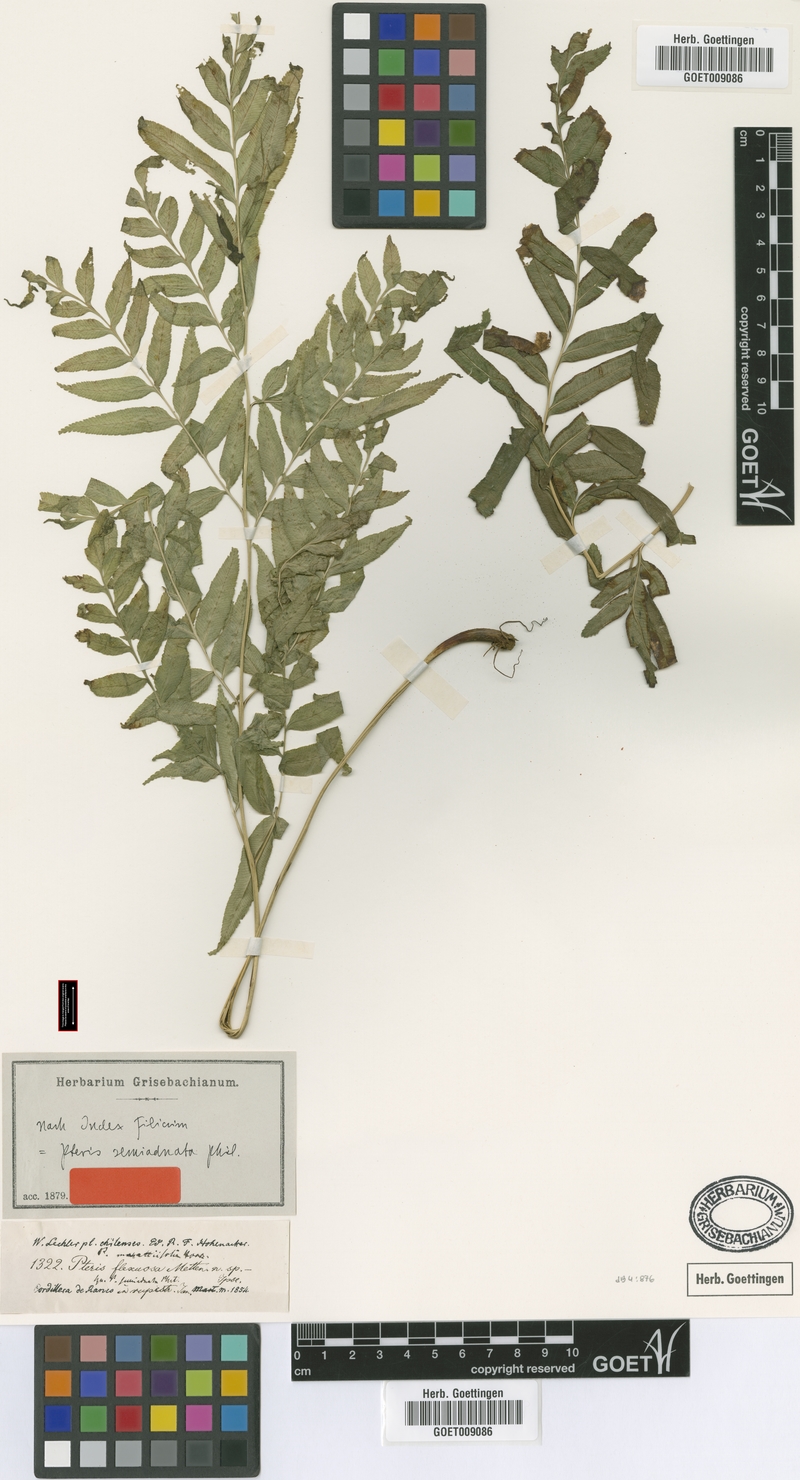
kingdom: Plantae
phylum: Tracheophyta
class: Polypodiopsida
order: Polypodiales
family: Pteridaceae
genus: Pteris
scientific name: Pteris semiadnata
